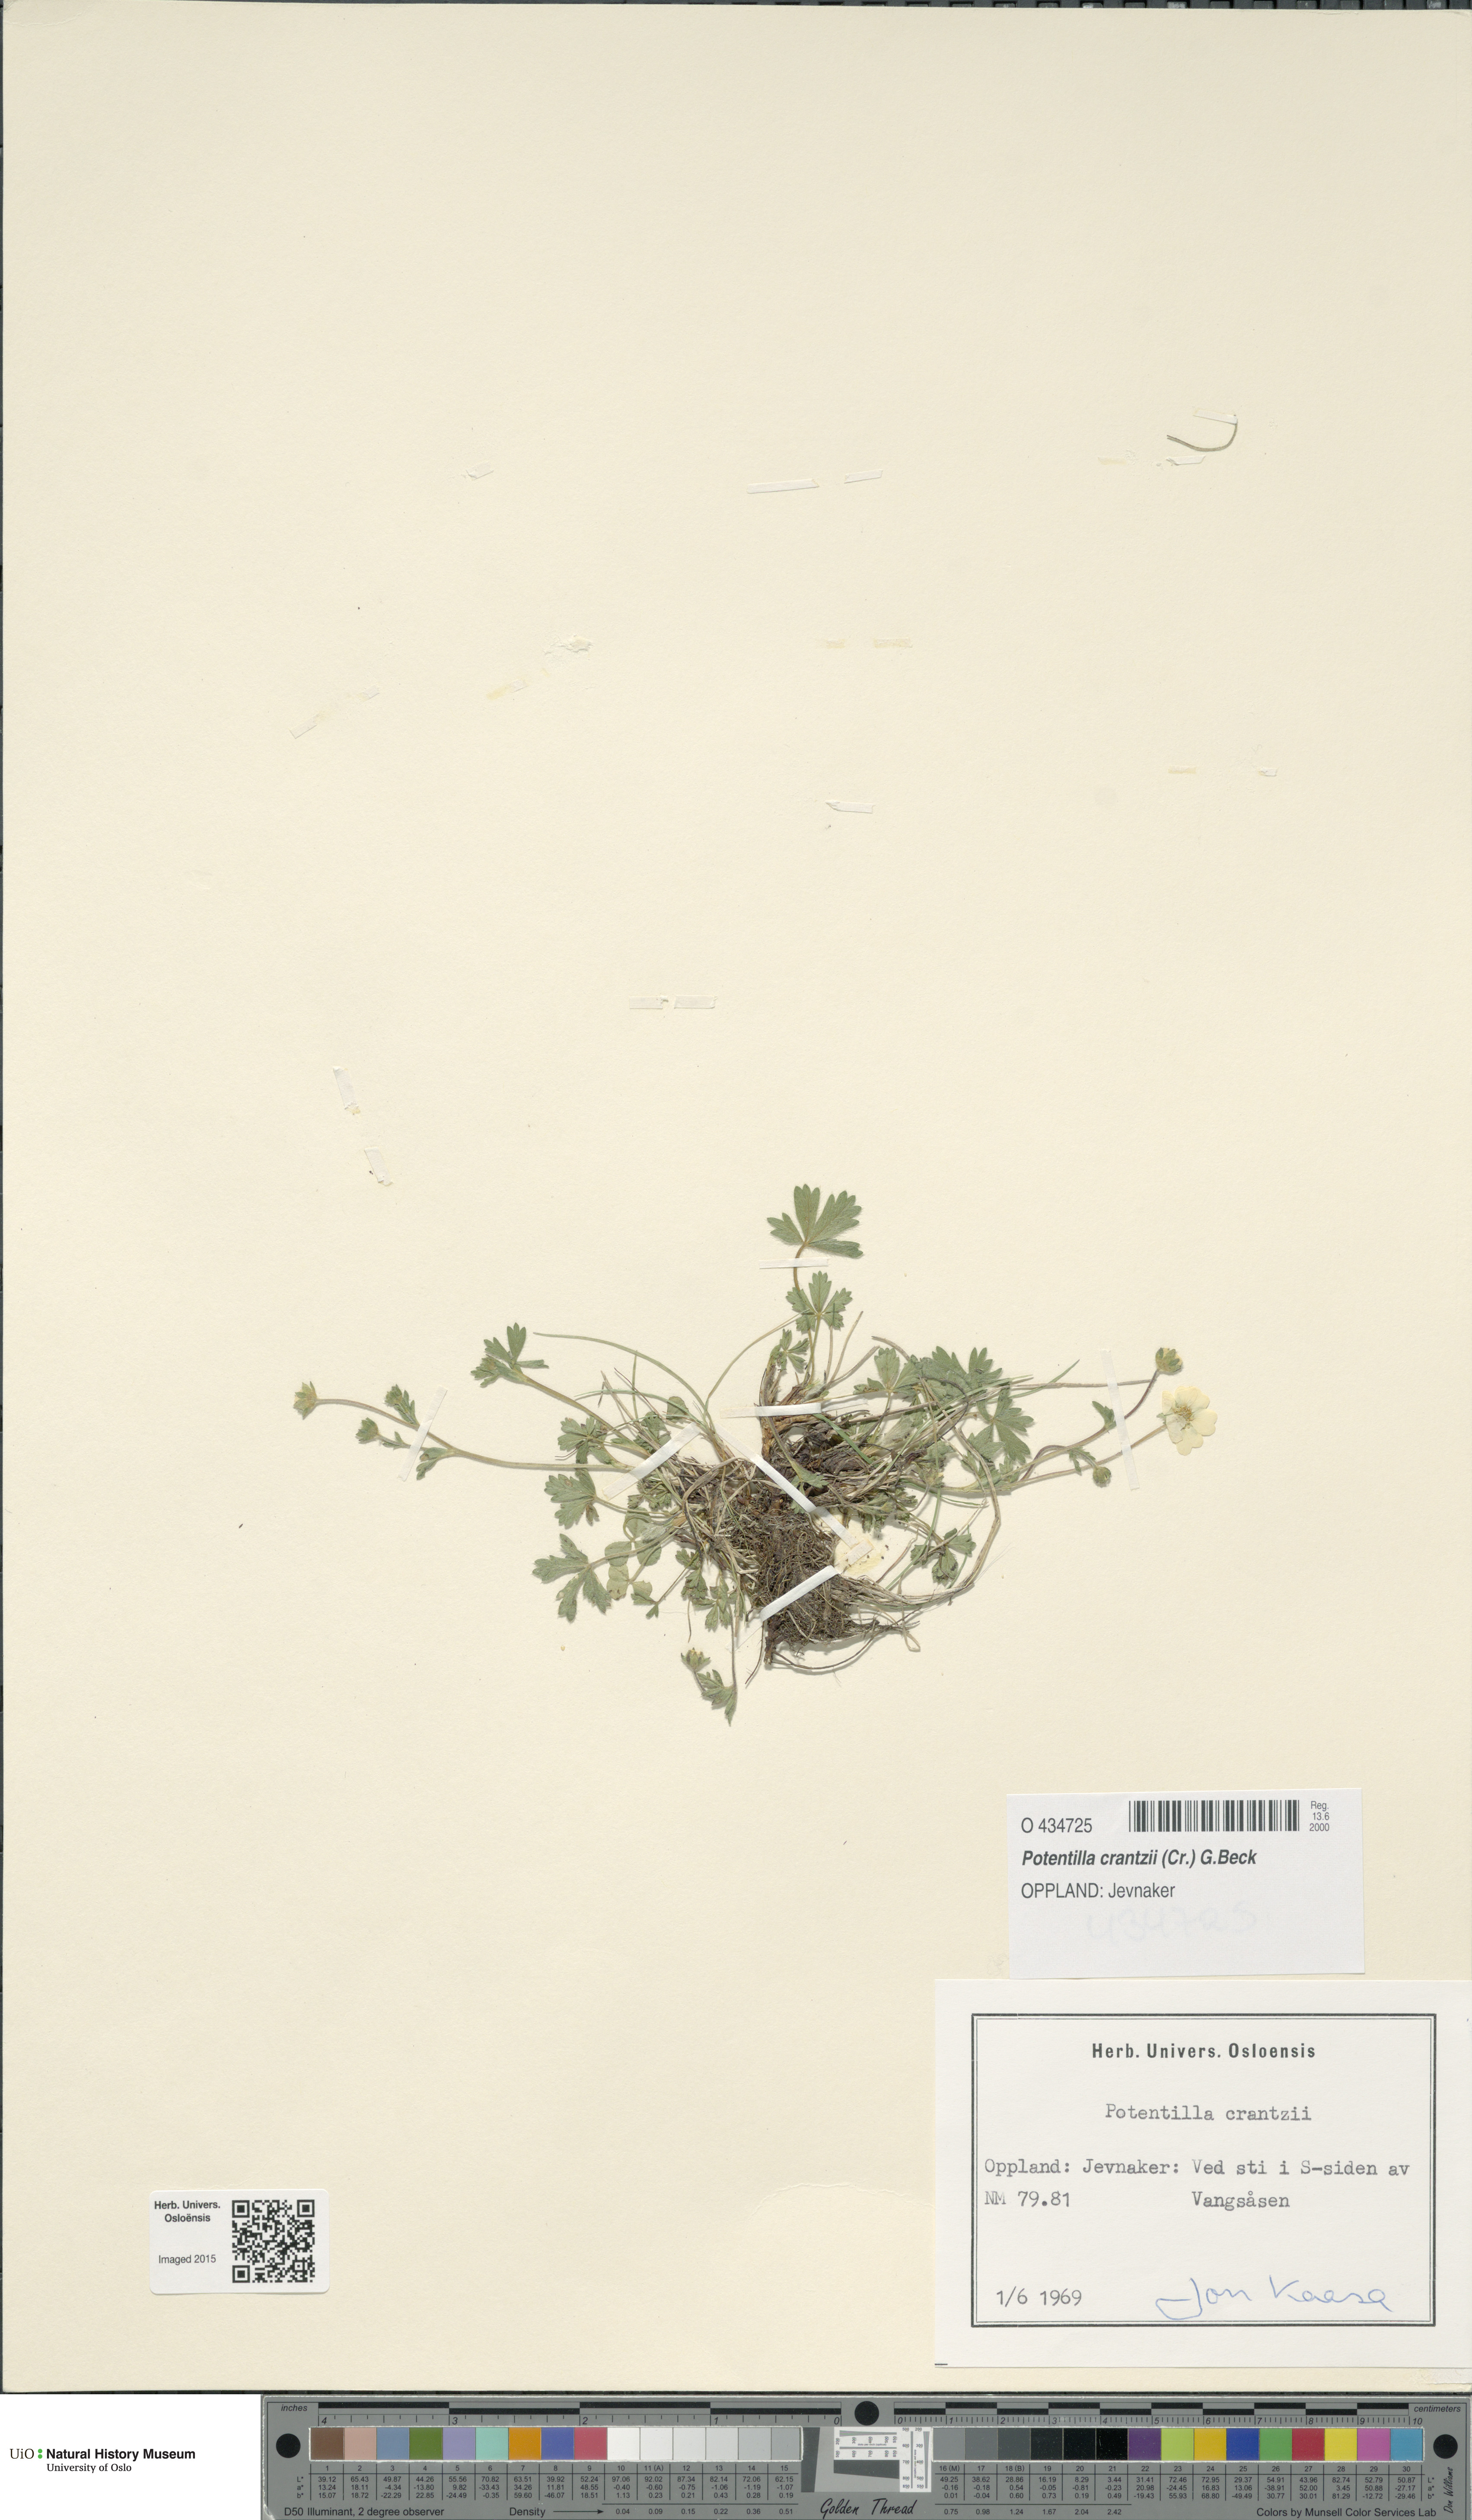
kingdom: Plantae
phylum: Tracheophyta
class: Magnoliopsida
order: Rosales
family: Rosaceae
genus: Potentilla
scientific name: Potentilla crantzii
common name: Alpine cinquefoil
